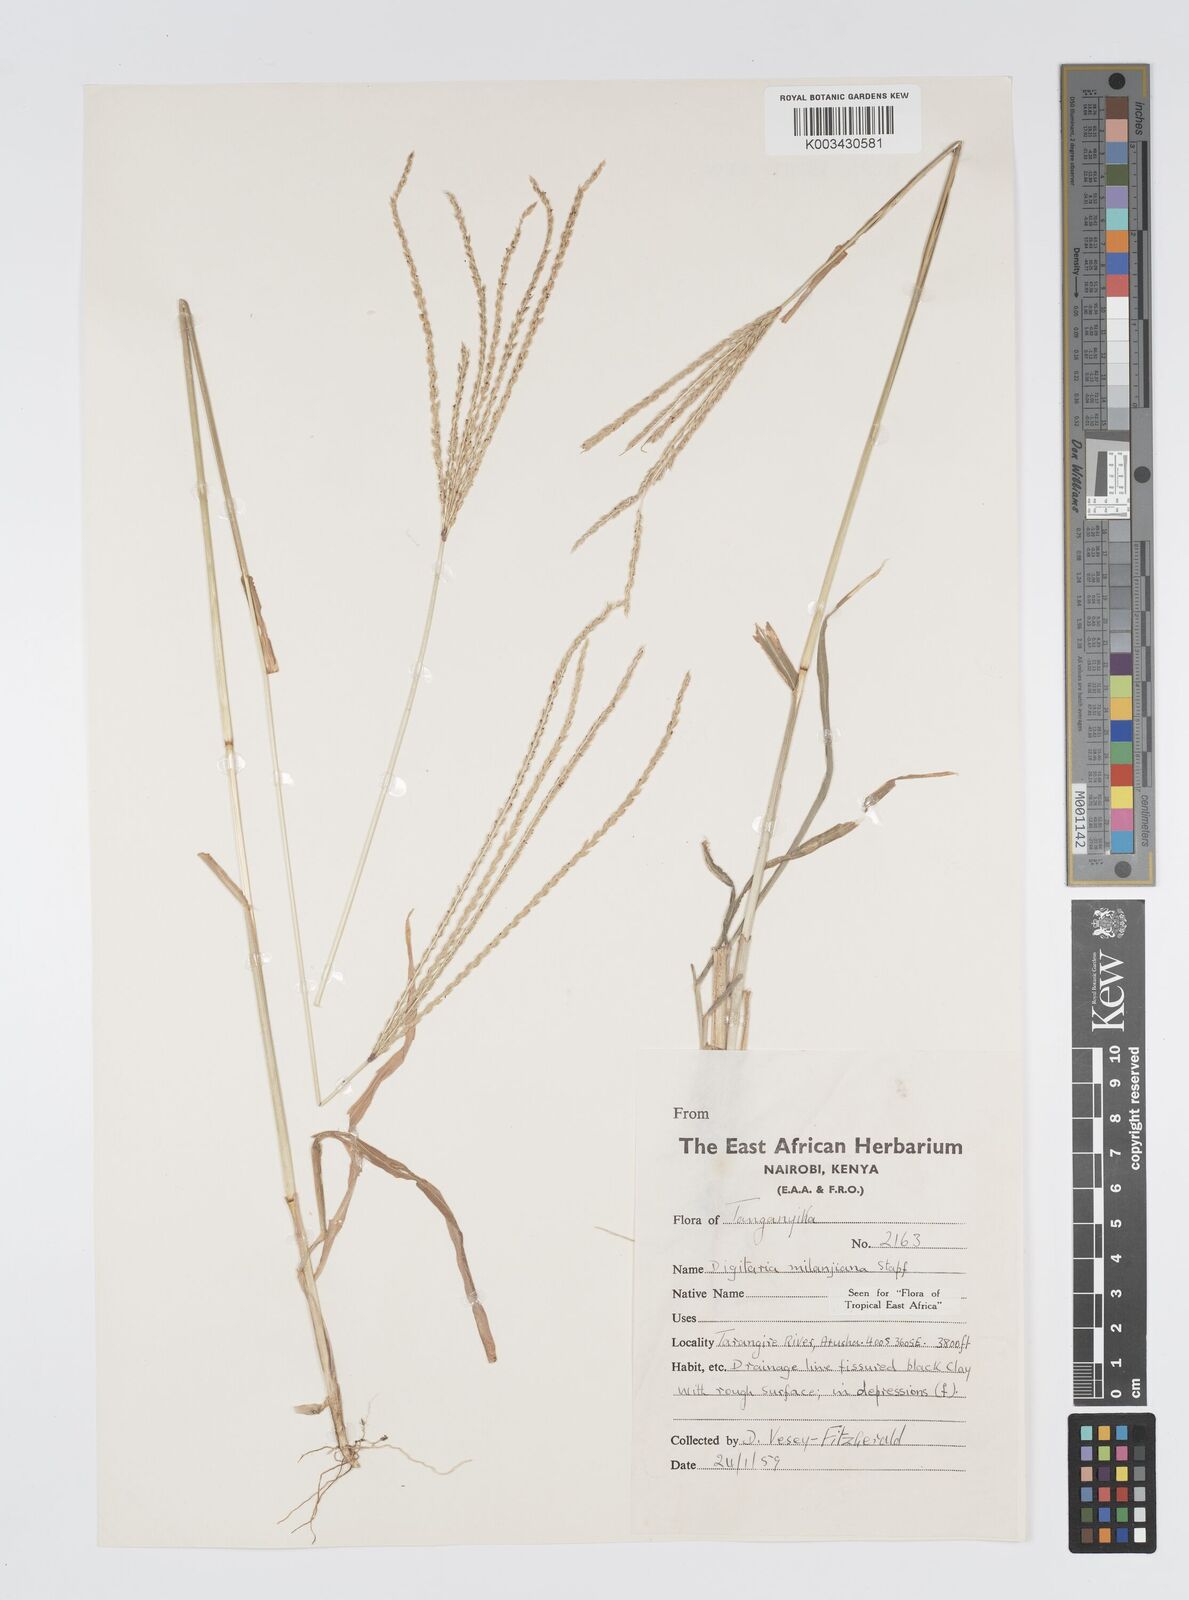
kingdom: Plantae
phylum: Tracheophyta
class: Liliopsida
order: Poales
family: Poaceae
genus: Digitaria
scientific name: Digitaria milanjiana
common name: Madagascar crabgrass
